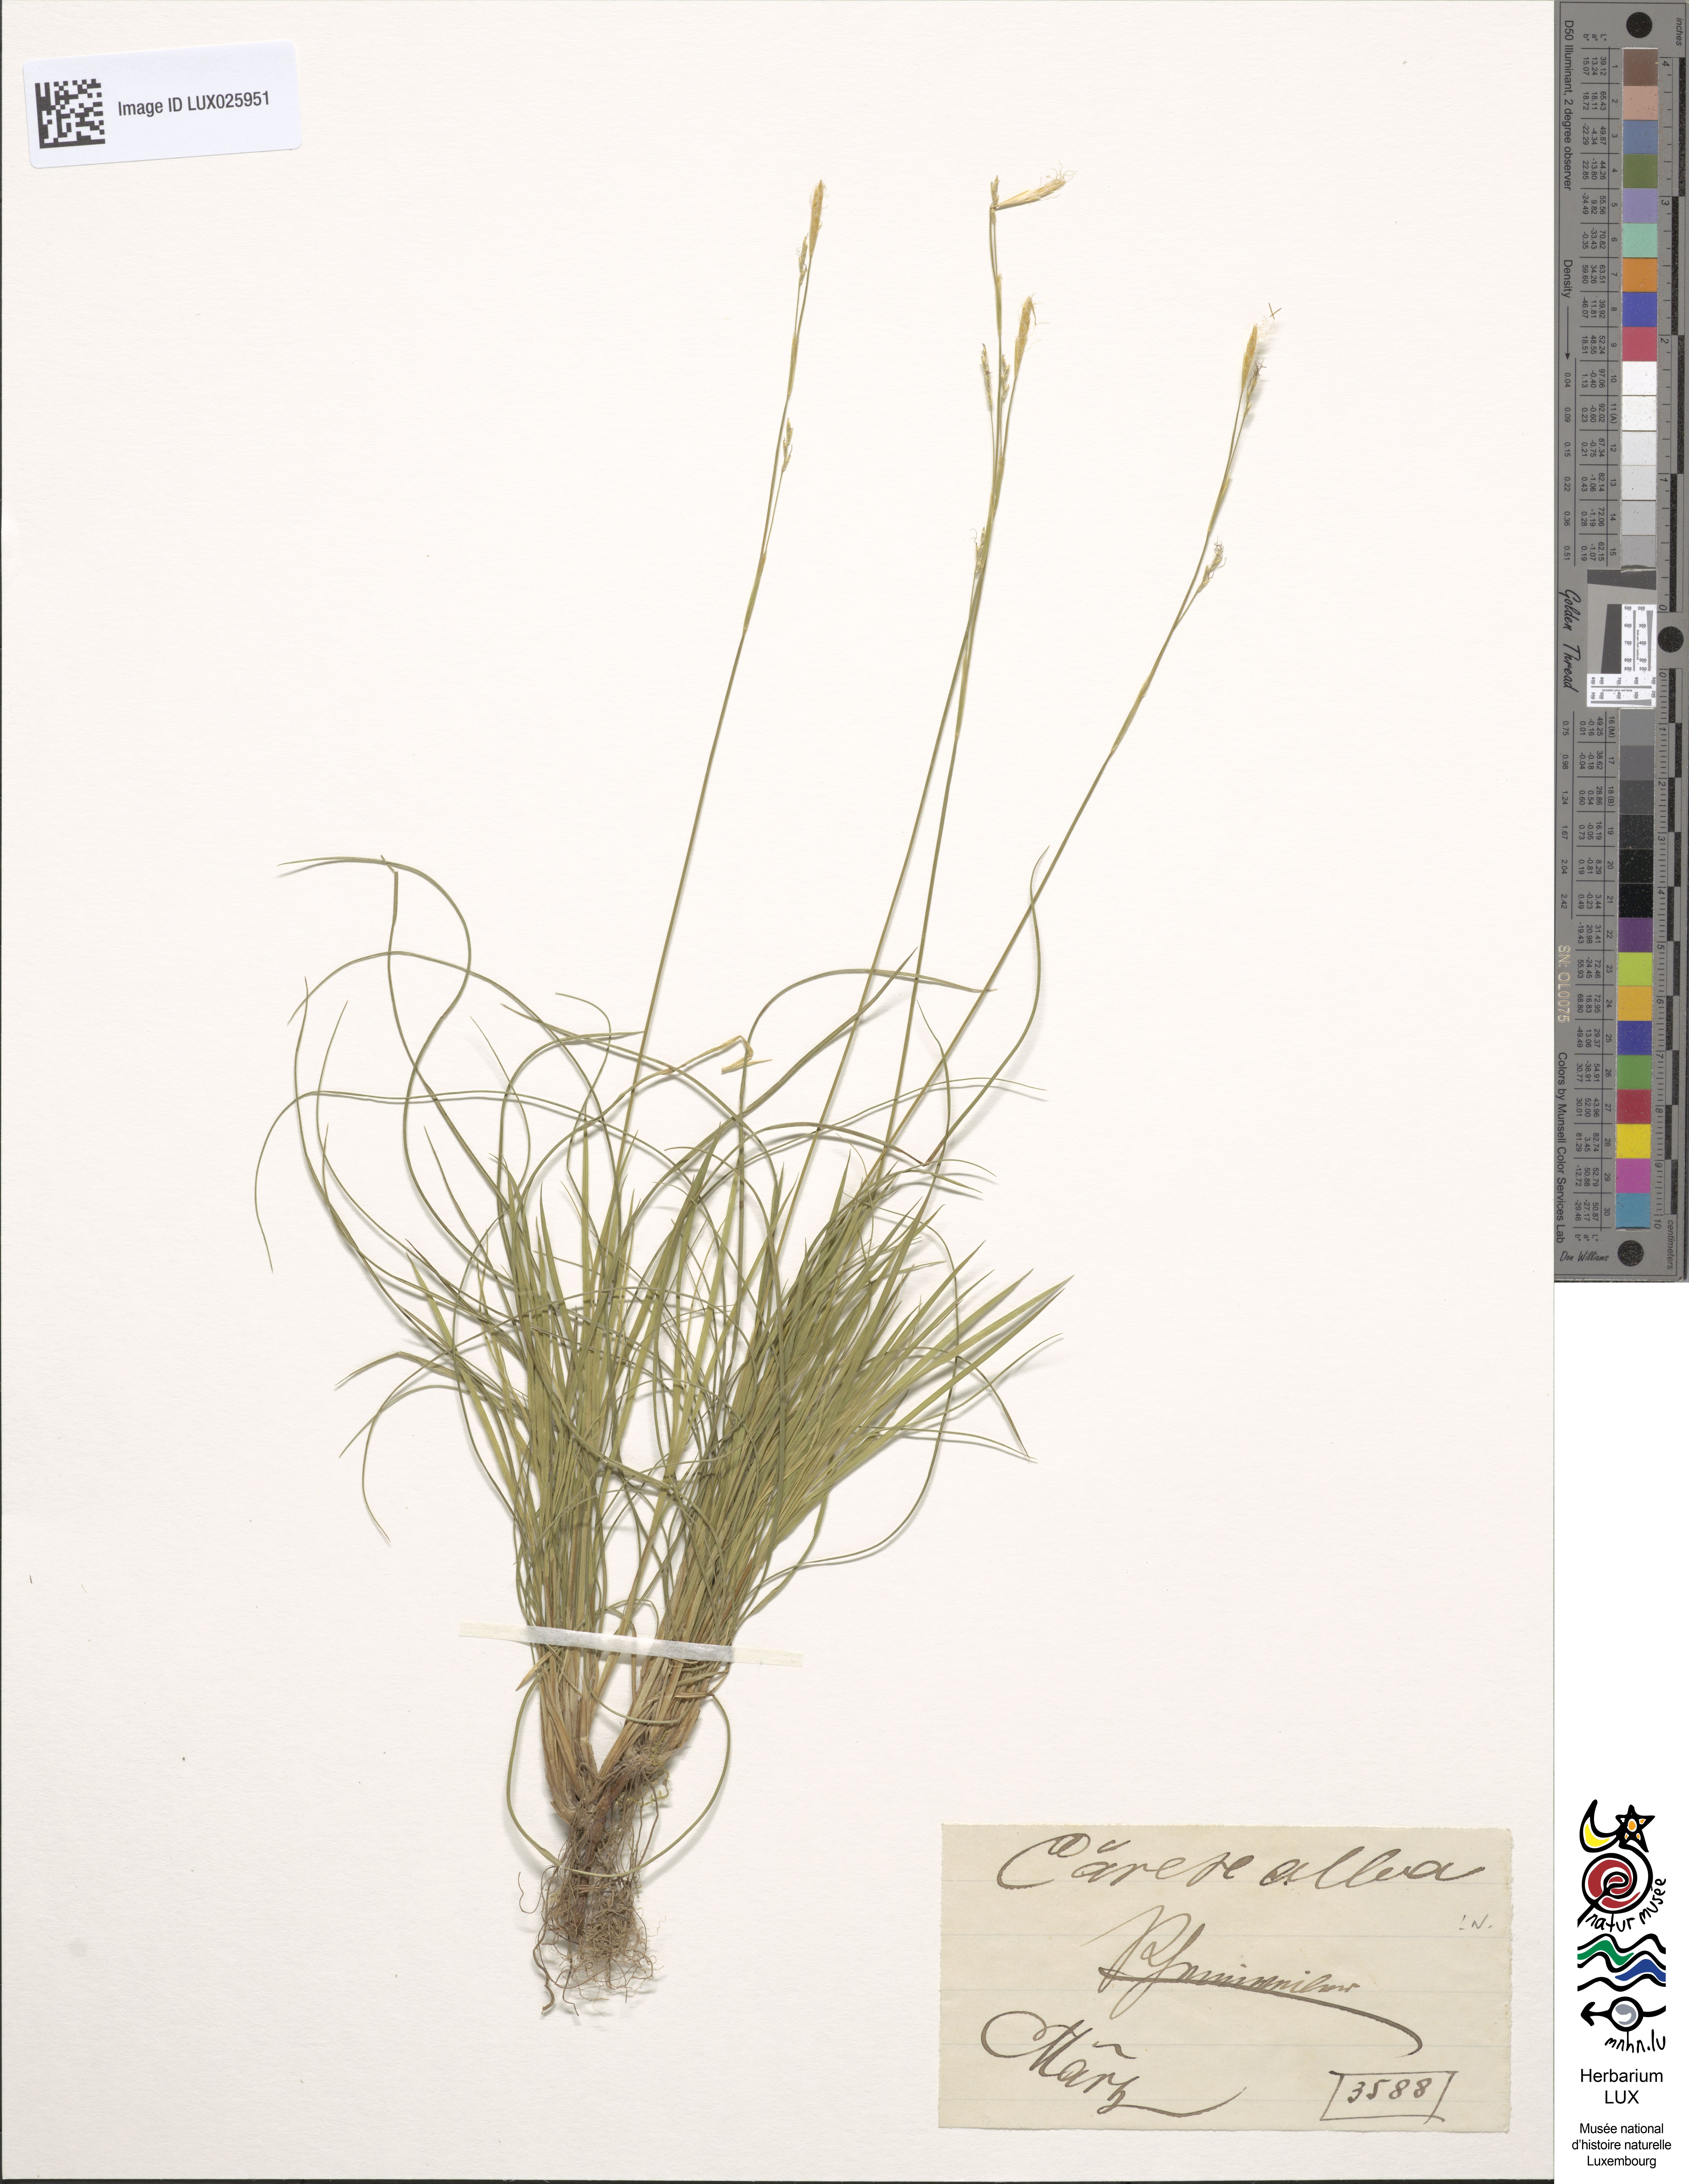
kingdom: Plantae
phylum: Tracheophyta
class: Liliopsida
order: Poales
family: Cyperaceae
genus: Carex
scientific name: Carex alba
